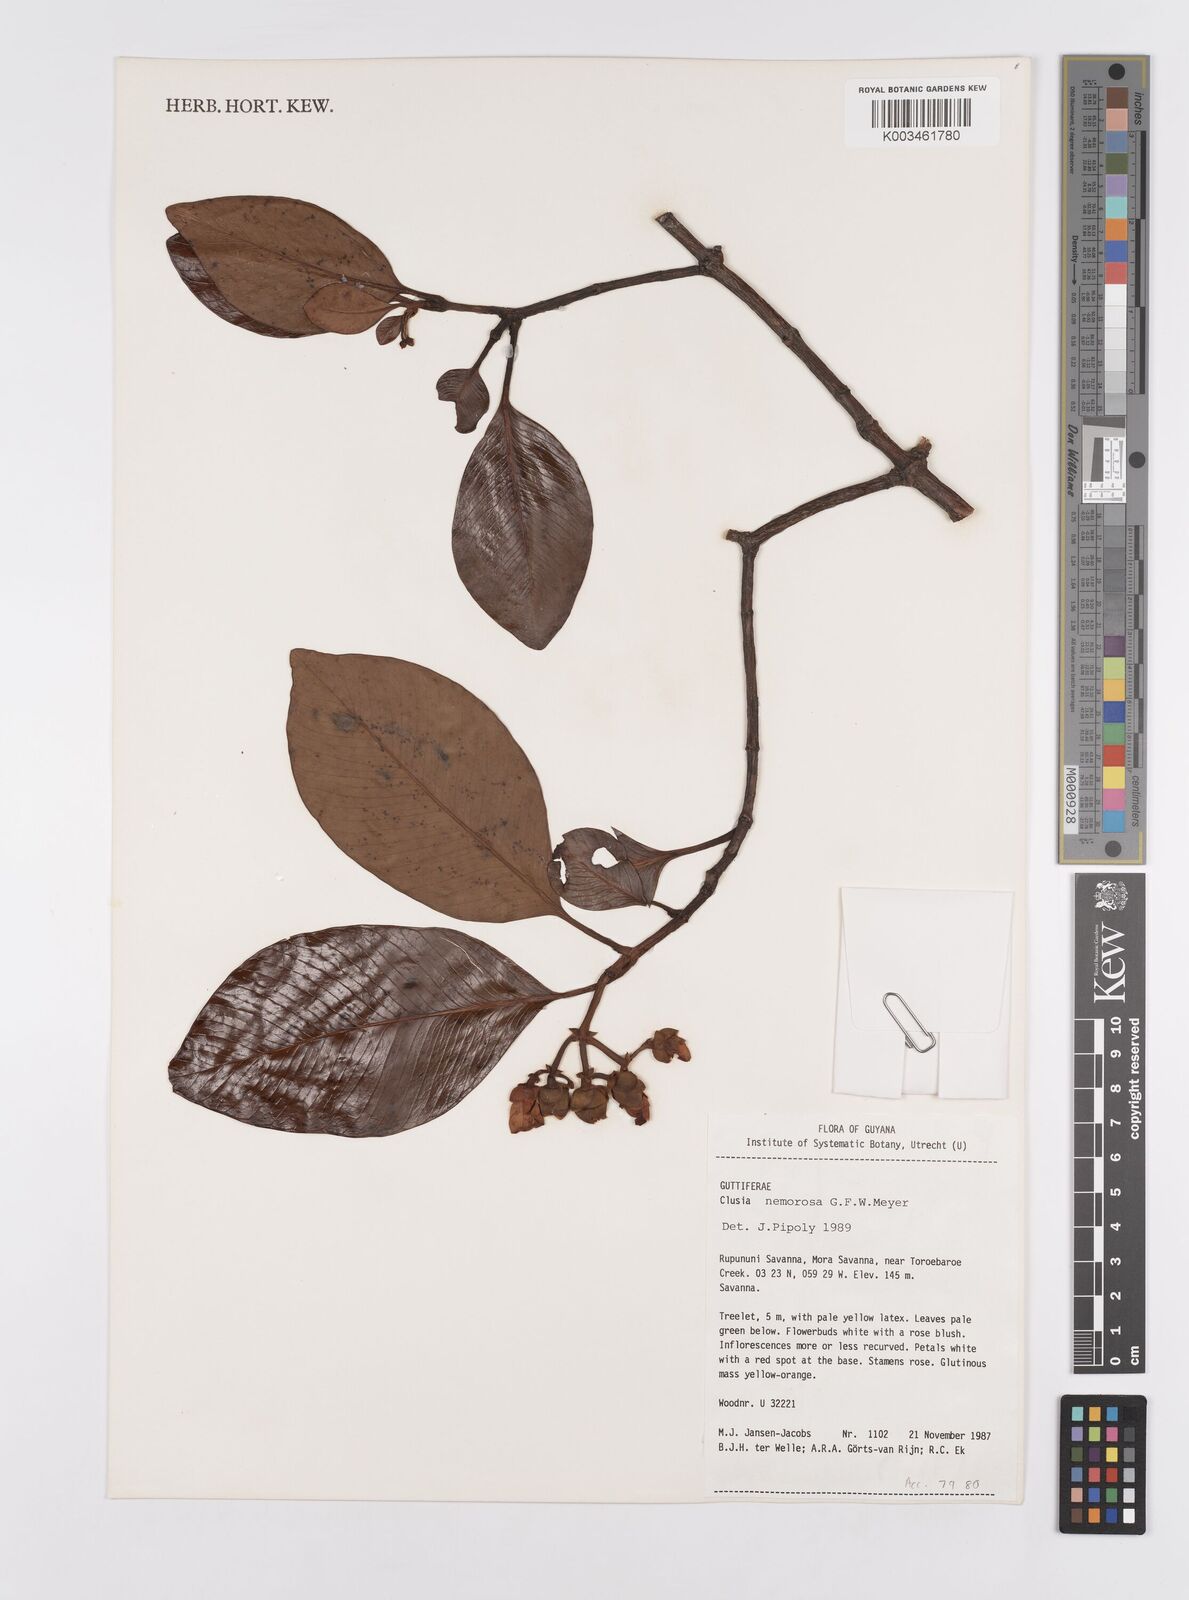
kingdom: Plantae
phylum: Tracheophyta
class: Magnoliopsida
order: Malpighiales
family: Clusiaceae
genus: Clusia
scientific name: Clusia nemorosa
